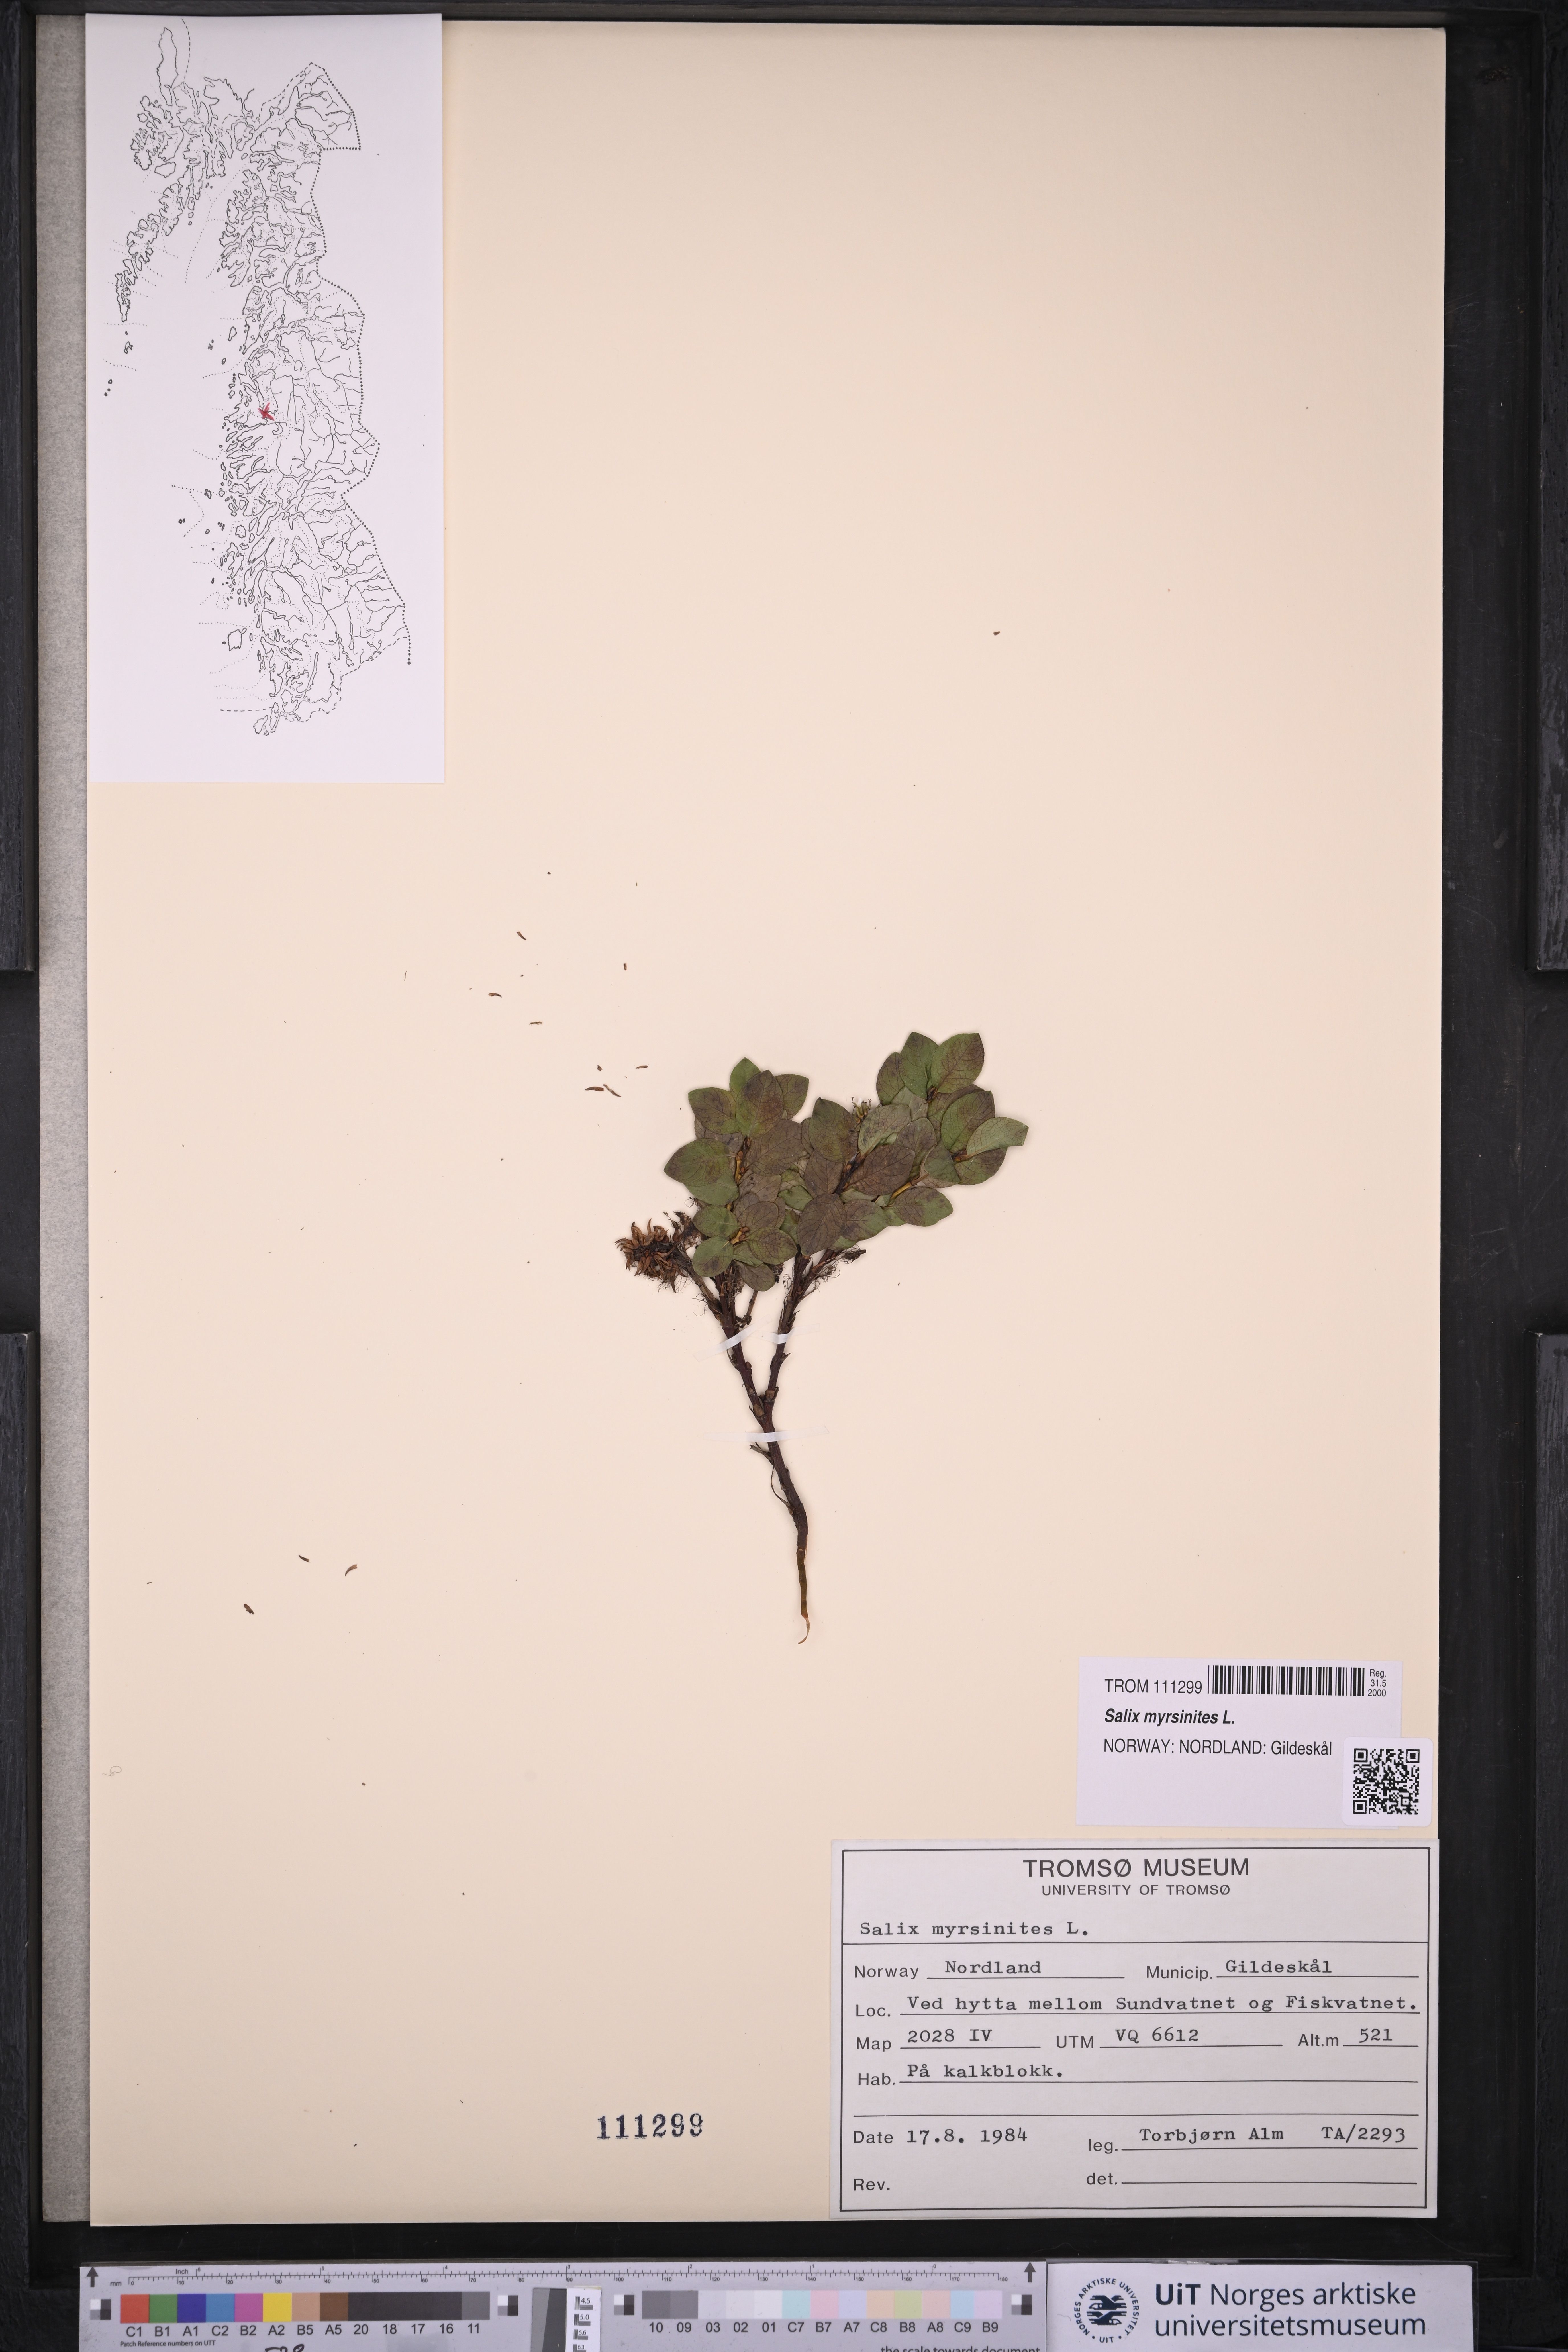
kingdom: Plantae
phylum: Tracheophyta
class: Magnoliopsida
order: Malpighiales
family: Salicaceae
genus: Salix
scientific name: Salix myrsinites
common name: Myrtle willow
